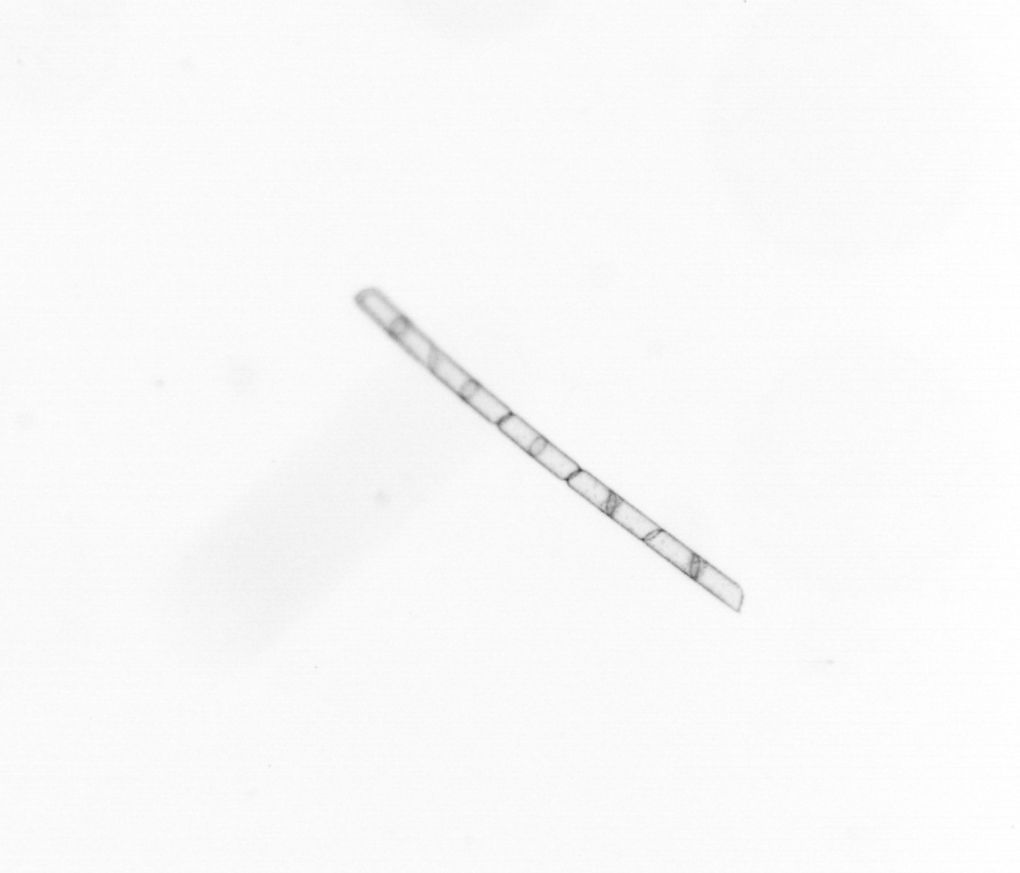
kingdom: Chromista
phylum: Ochrophyta
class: Bacillariophyceae
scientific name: Bacillariophyceae
